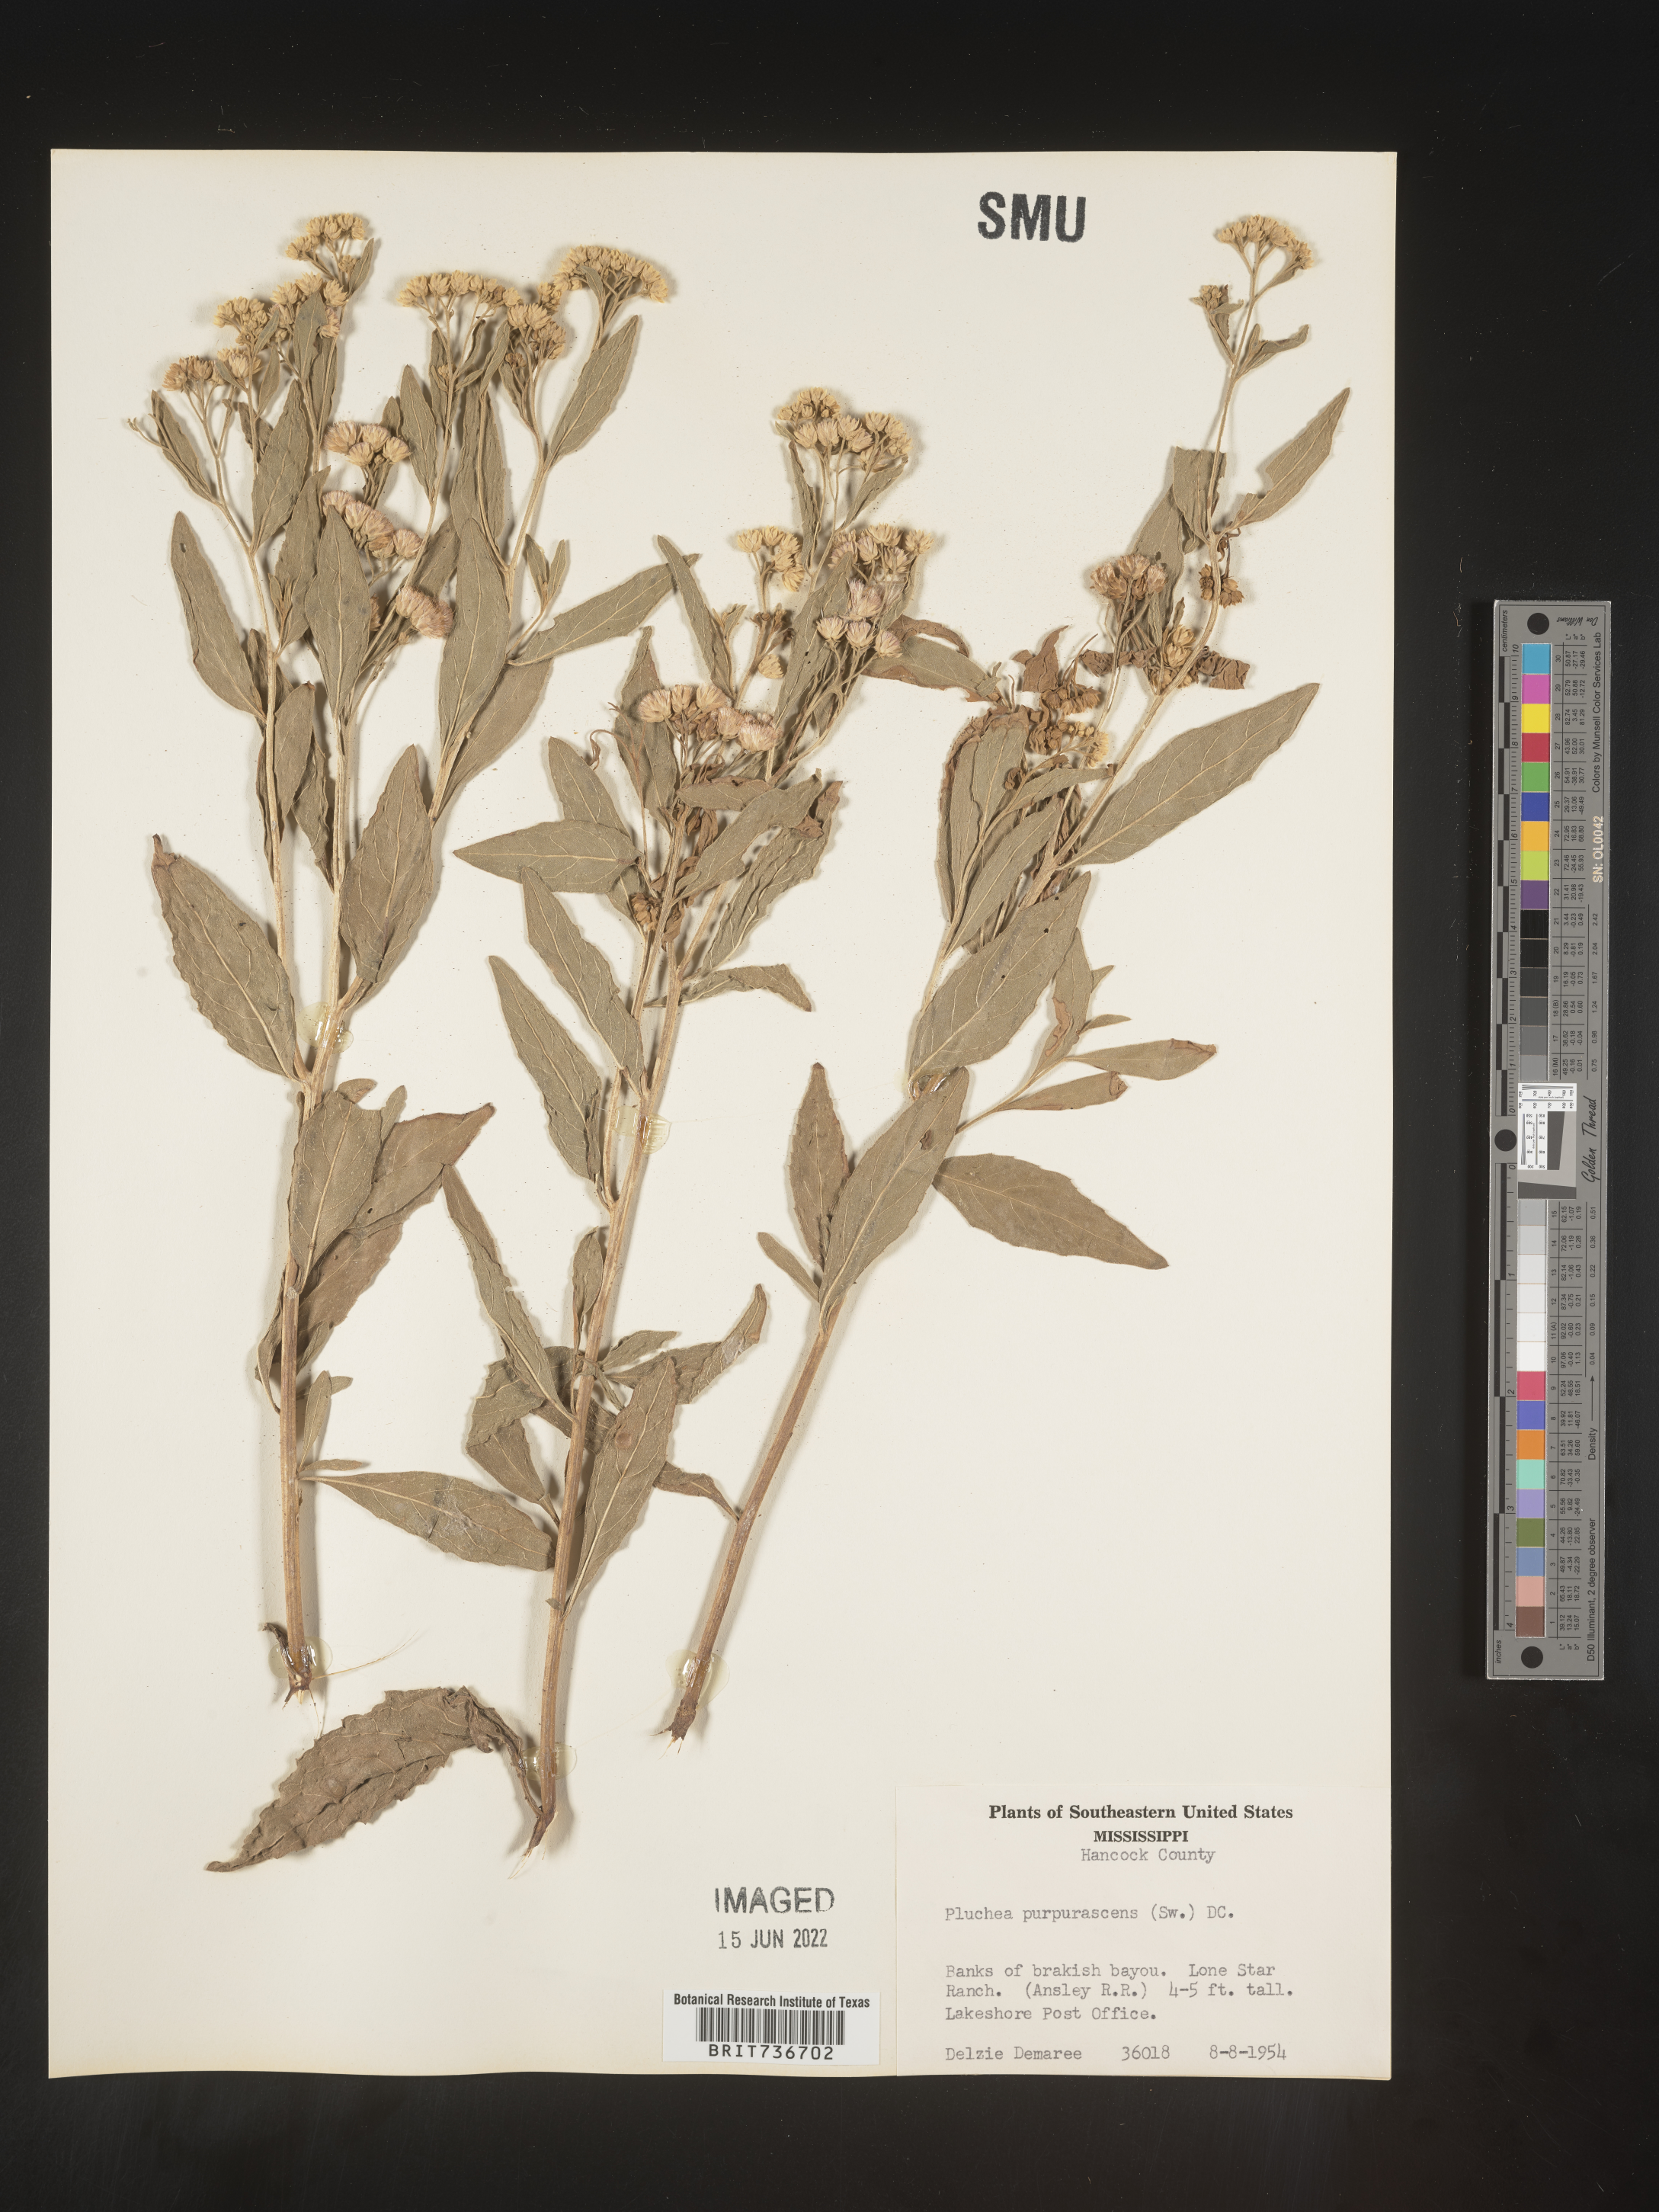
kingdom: Plantae
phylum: Tracheophyta
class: Magnoliopsida
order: Asterales
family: Asteraceae
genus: Pluchea
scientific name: Pluchea odorata
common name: Saltmarsh fleabane
